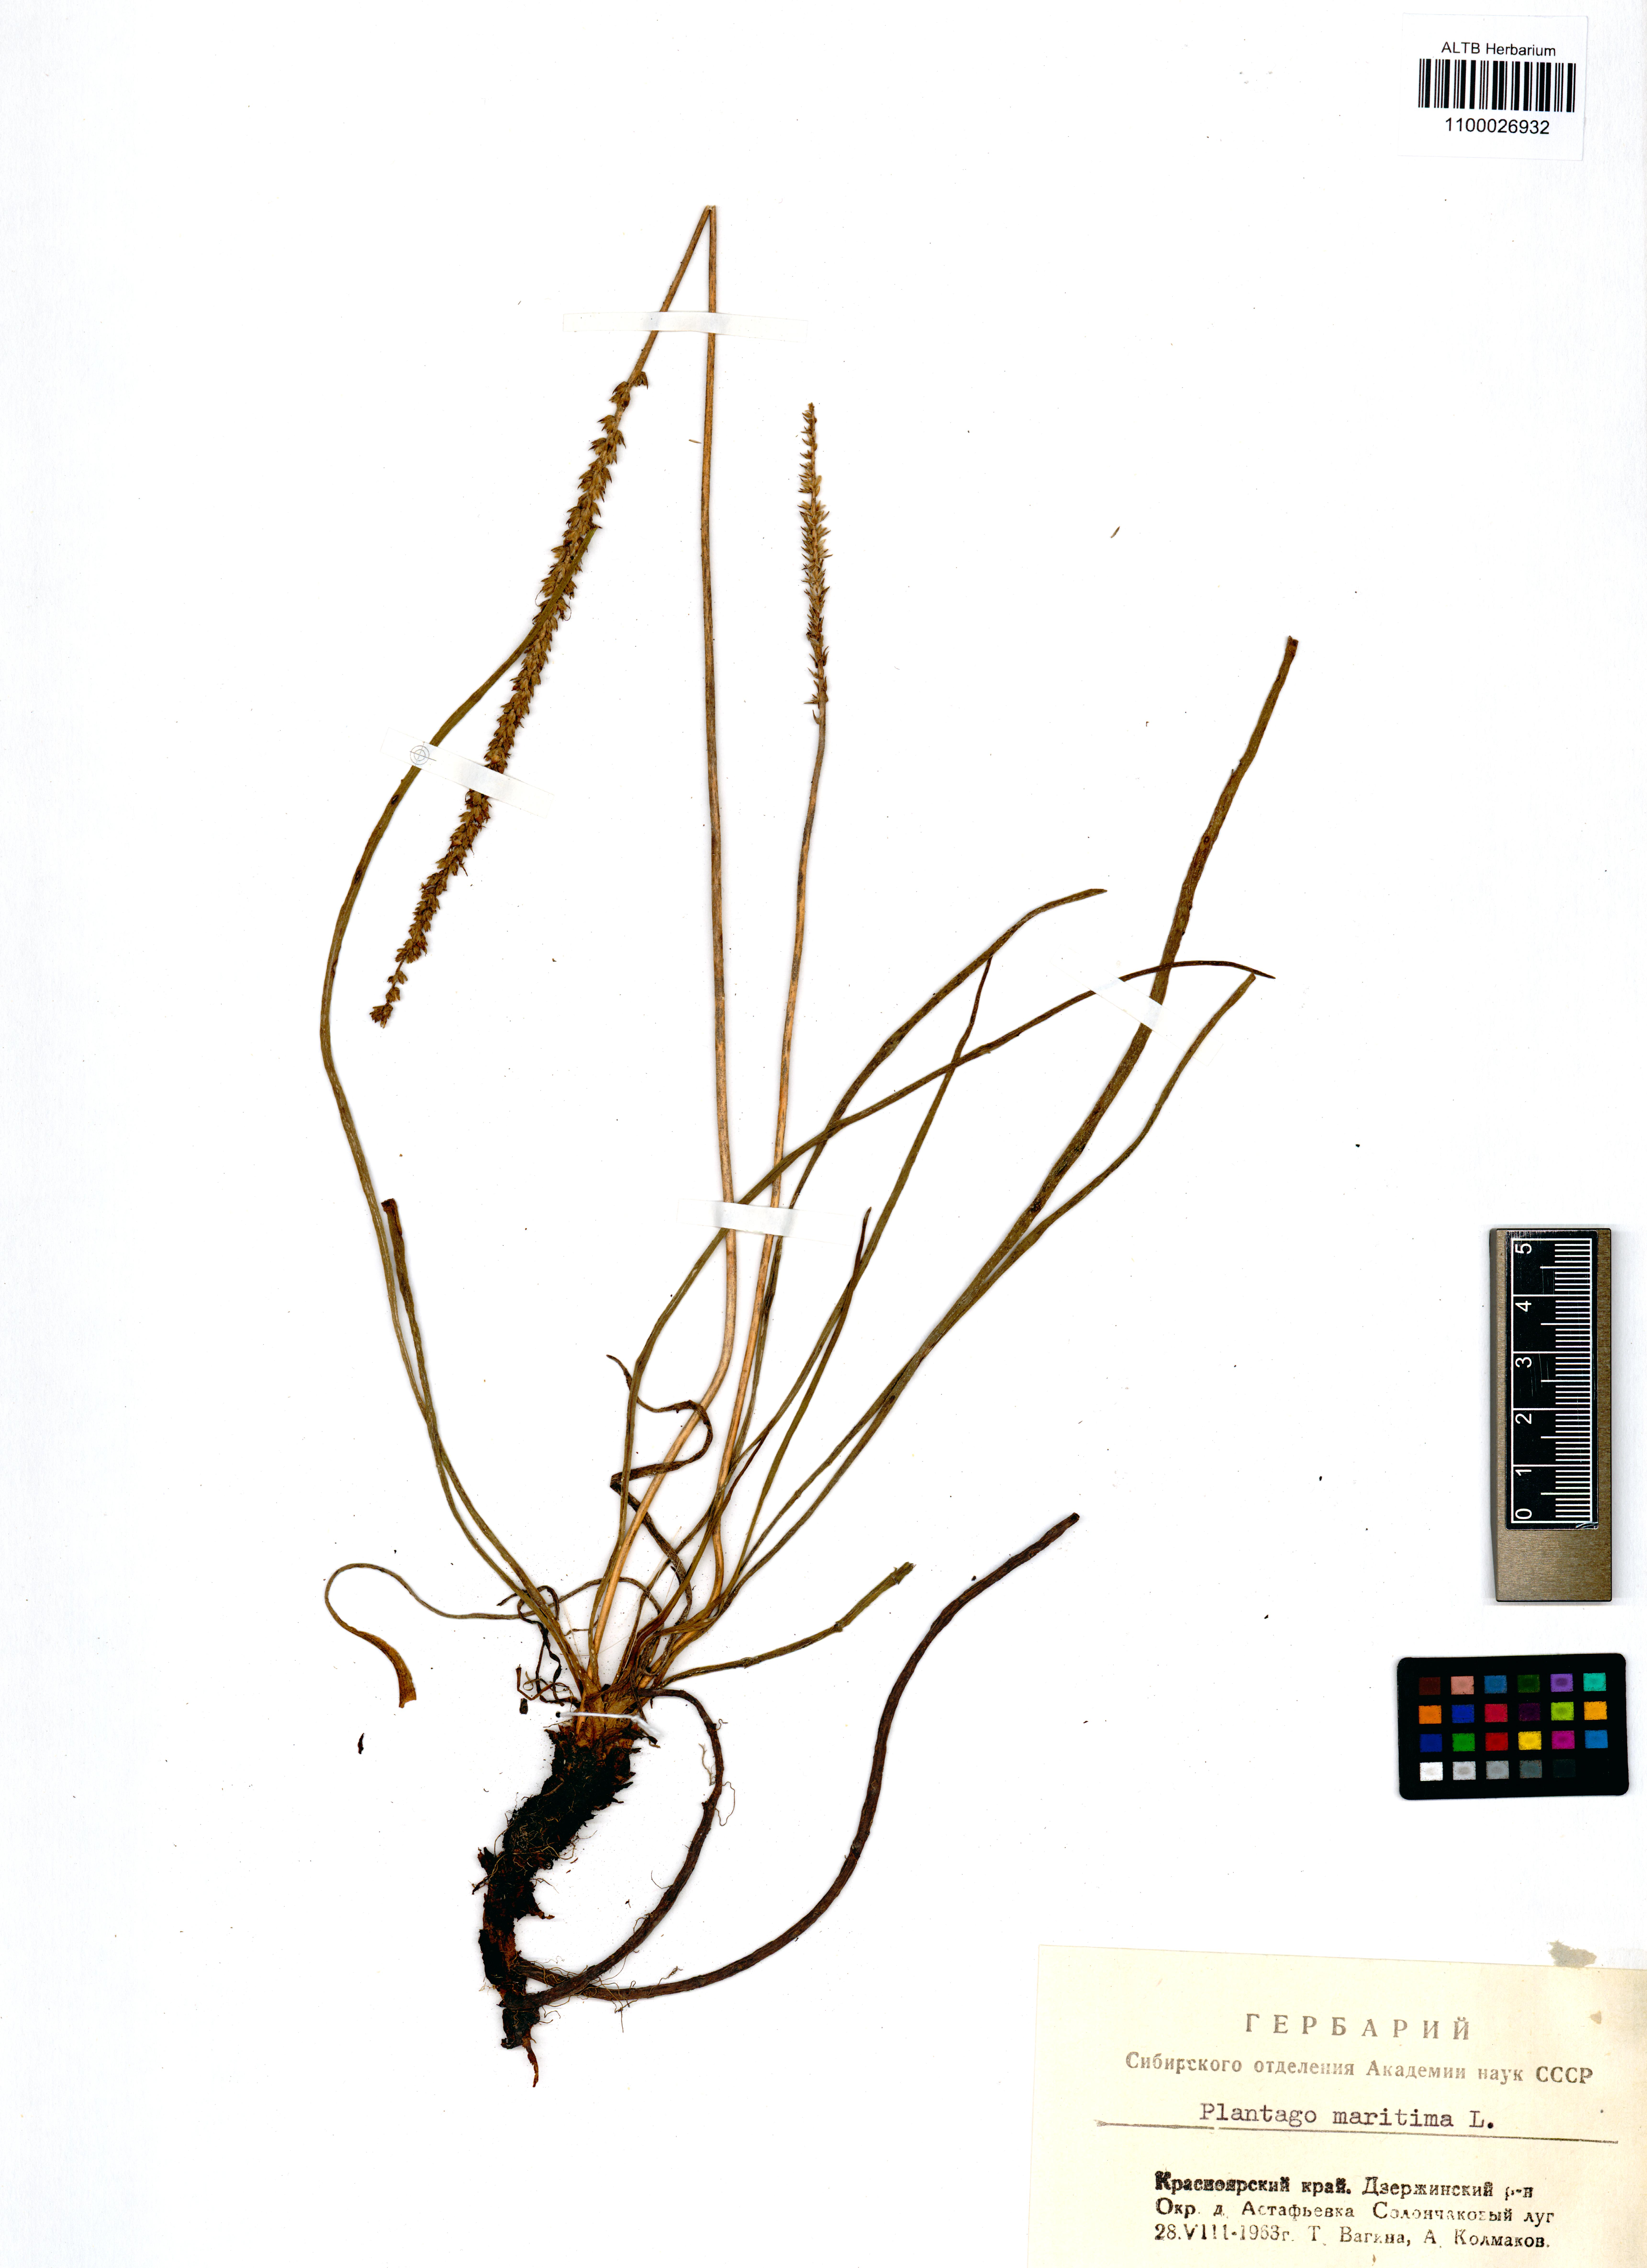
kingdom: Plantae
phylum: Tracheophyta
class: Magnoliopsida
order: Lamiales
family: Plantaginaceae
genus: Plantago
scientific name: Plantago maritima
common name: Sea plantain
